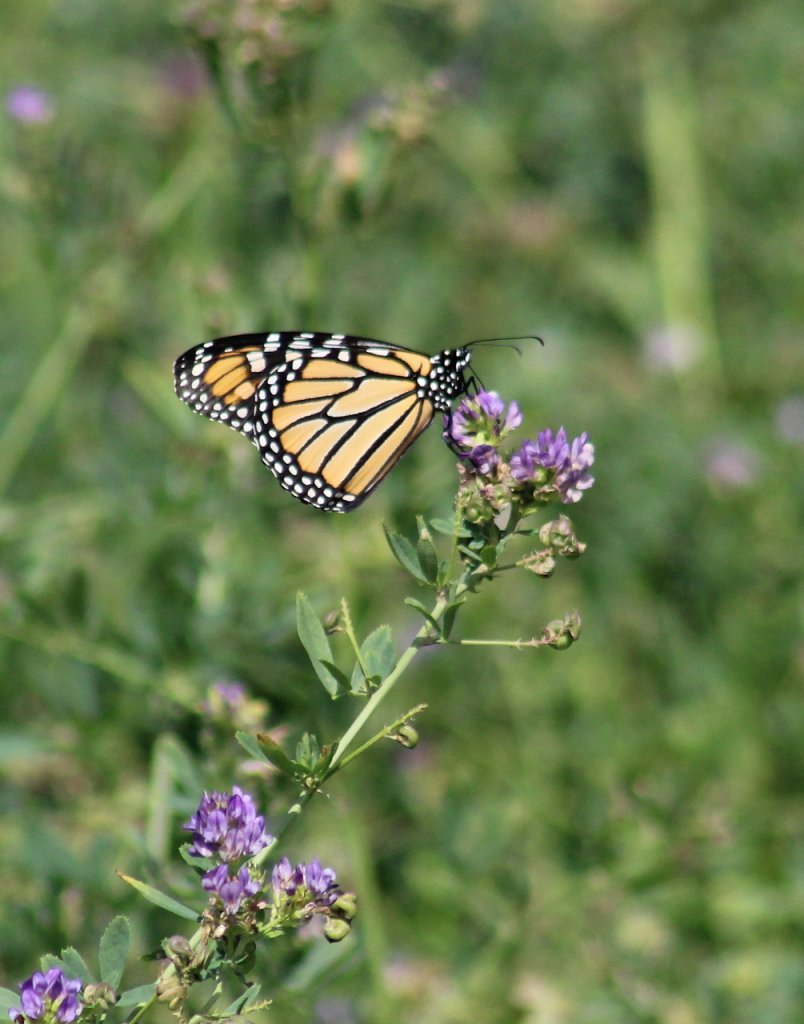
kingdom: Animalia
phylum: Arthropoda
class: Insecta
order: Lepidoptera
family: Nymphalidae
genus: Danaus
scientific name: Danaus plexippus
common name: Monarch
